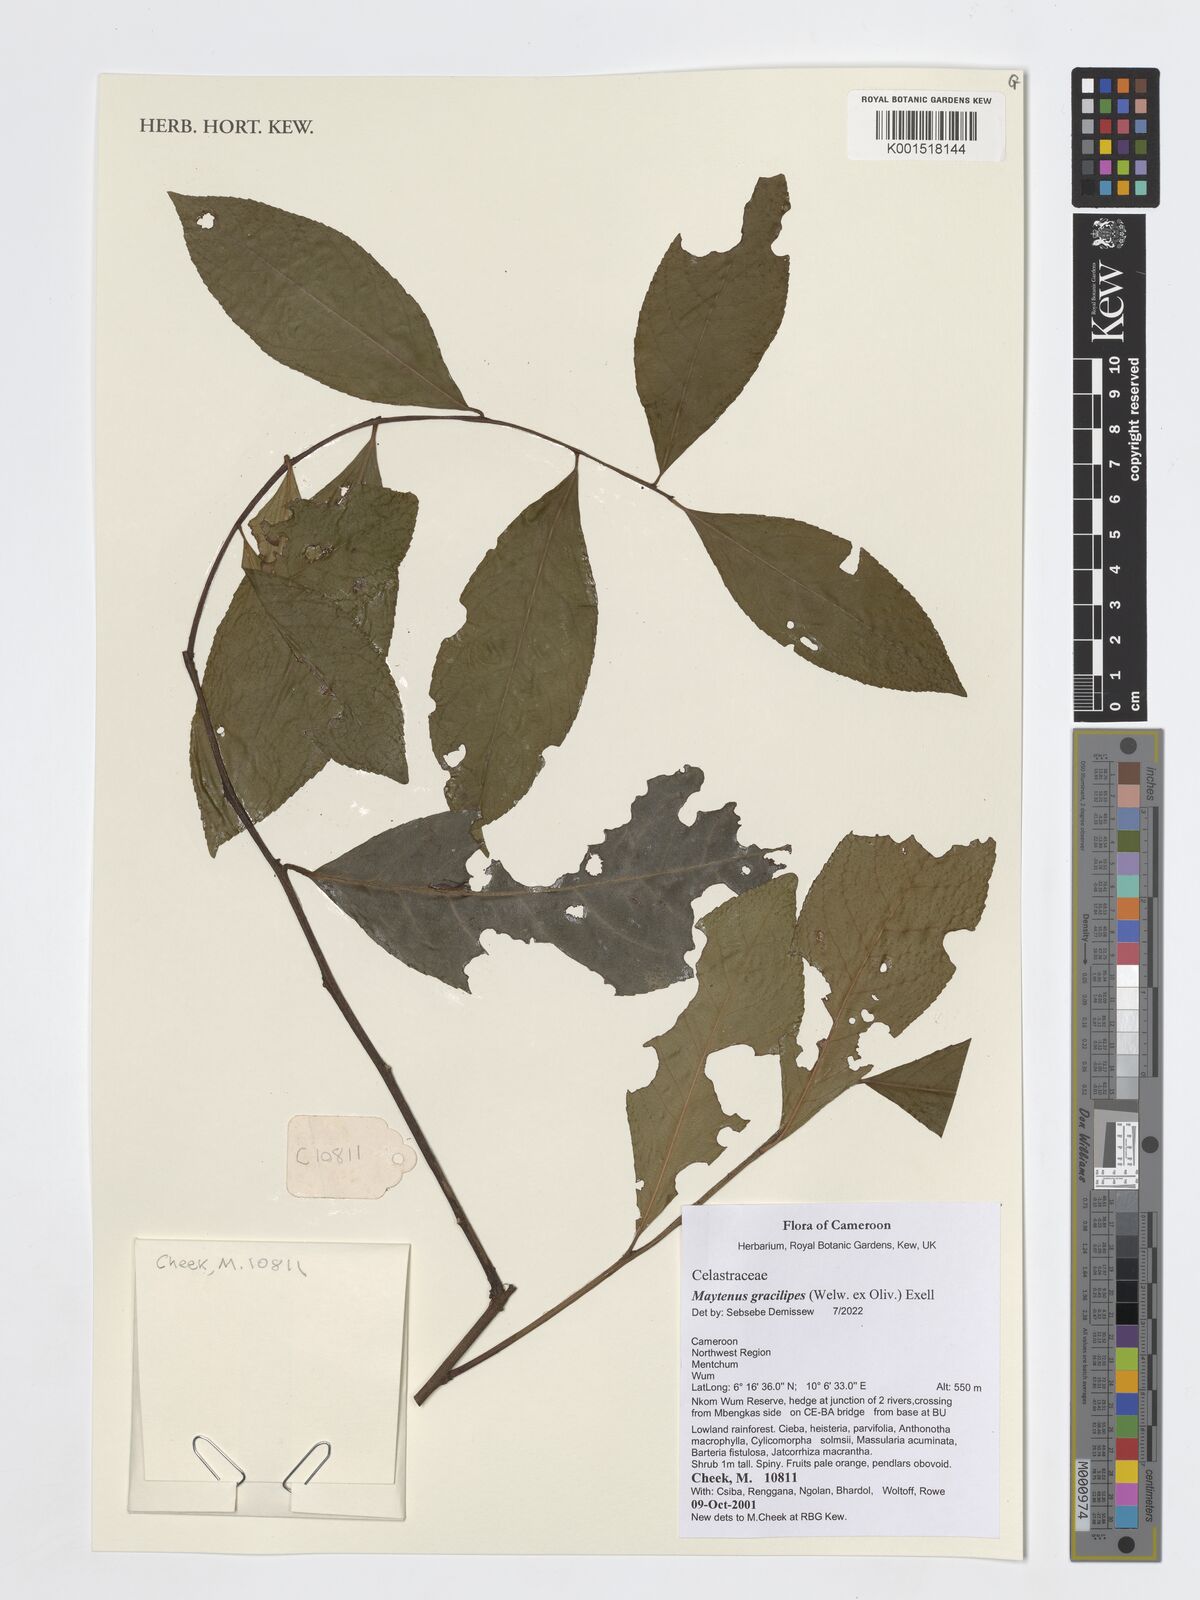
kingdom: Plantae
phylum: Tracheophyta
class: Magnoliopsida
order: Celastrales
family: Celastraceae
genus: Gymnosporia
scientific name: Gymnosporia gracilipes
